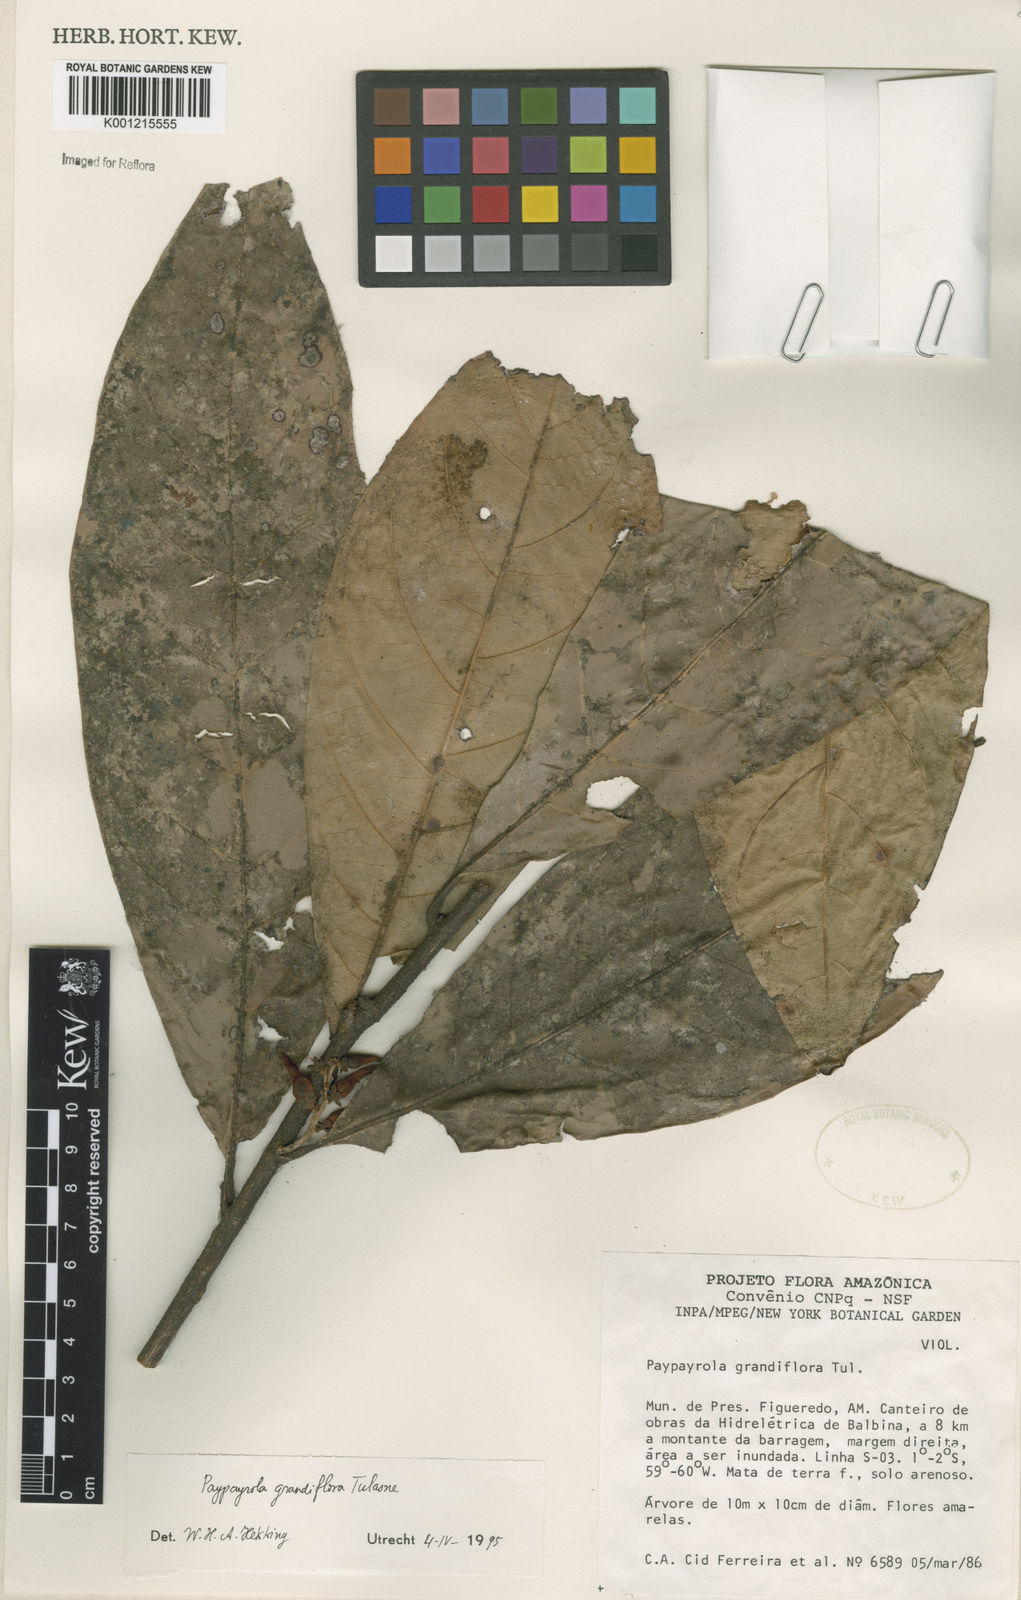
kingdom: Plantae
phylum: Tracheophyta
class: Magnoliopsida
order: Malpighiales
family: Violaceae
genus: Paypayrola
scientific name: Paypayrola grandiflora
